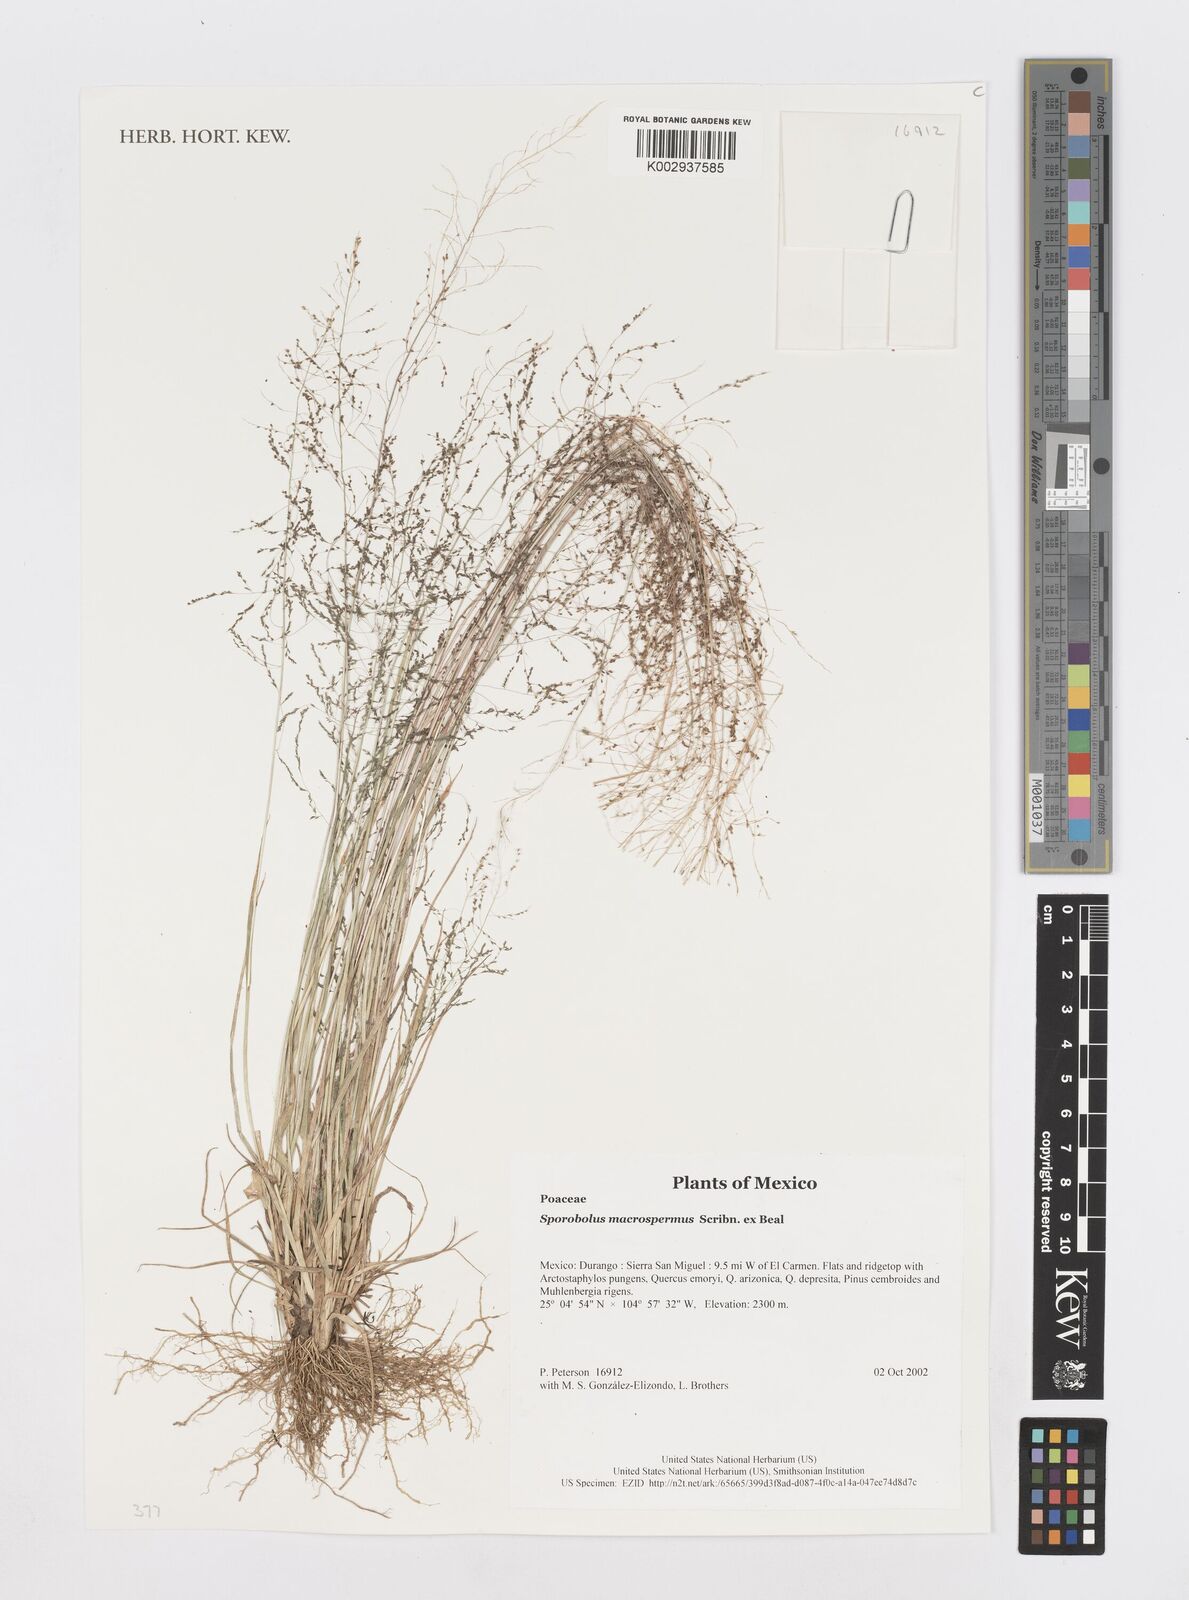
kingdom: Plantae
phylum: Tracheophyta
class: Liliopsida
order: Poales
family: Poaceae
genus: Sporobolus
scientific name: Sporobolus macrospermus
